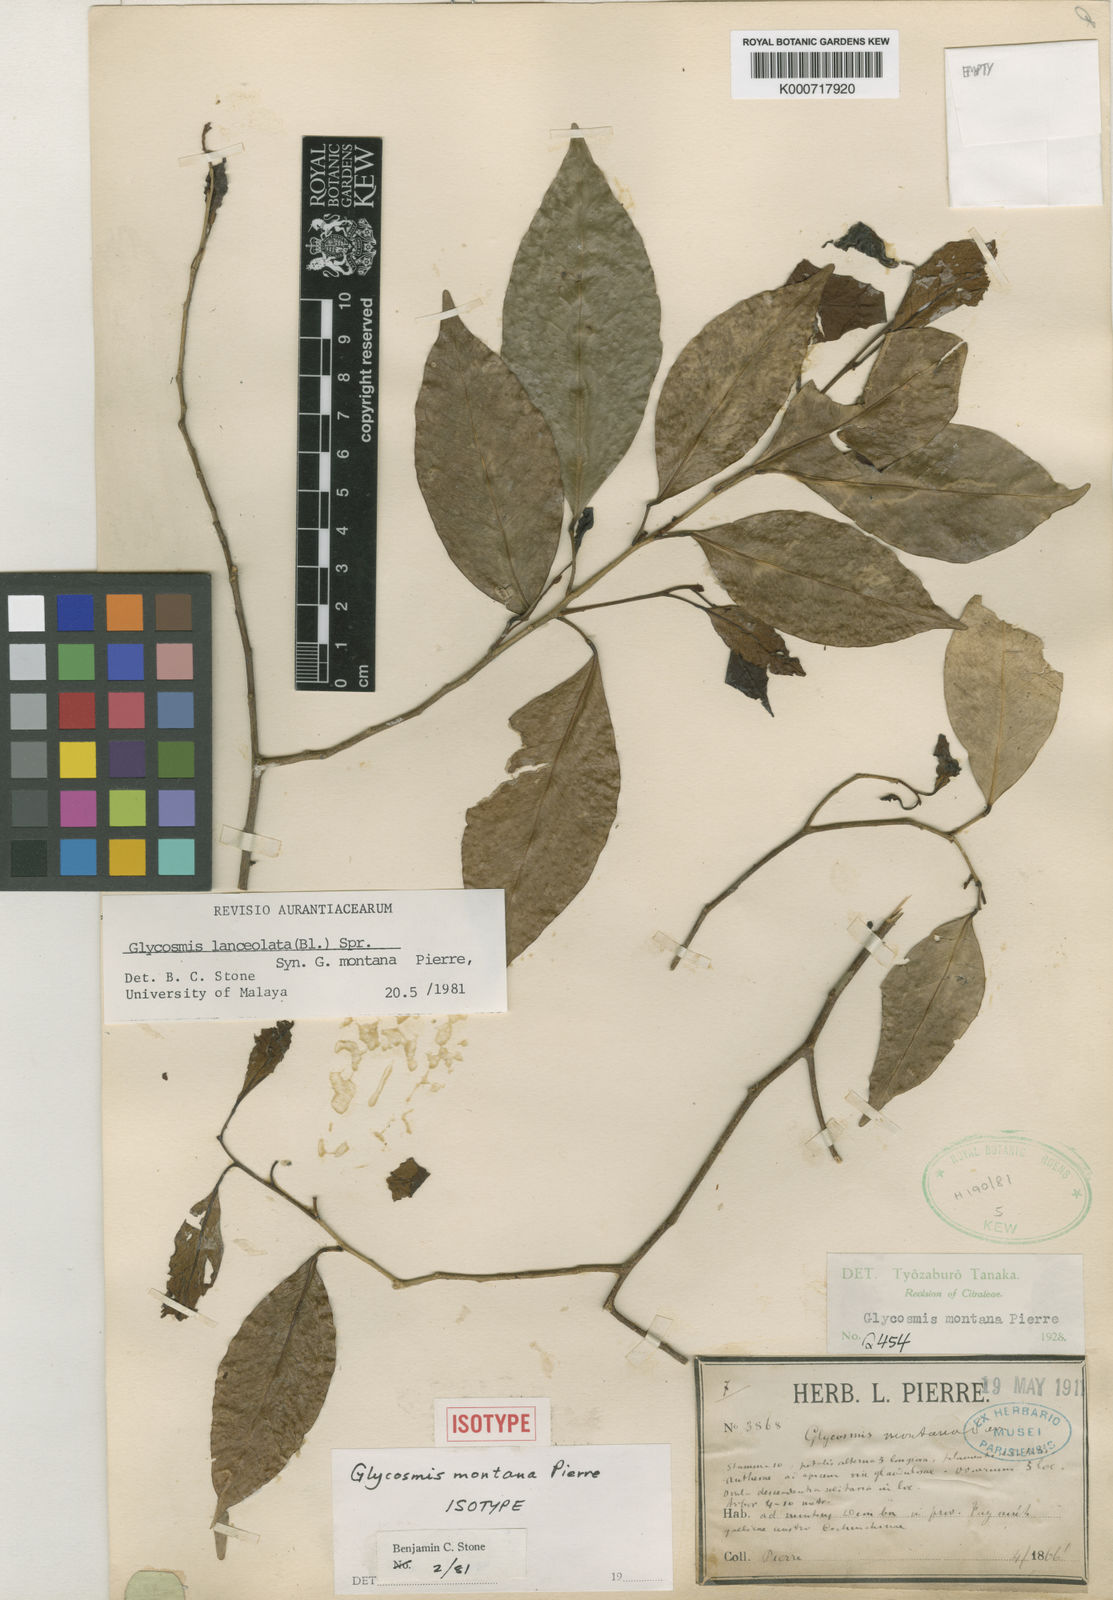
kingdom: Plantae
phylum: Tracheophyta
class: Magnoliopsida
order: Sapindales
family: Rutaceae
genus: Glycosmis
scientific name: Glycosmis
